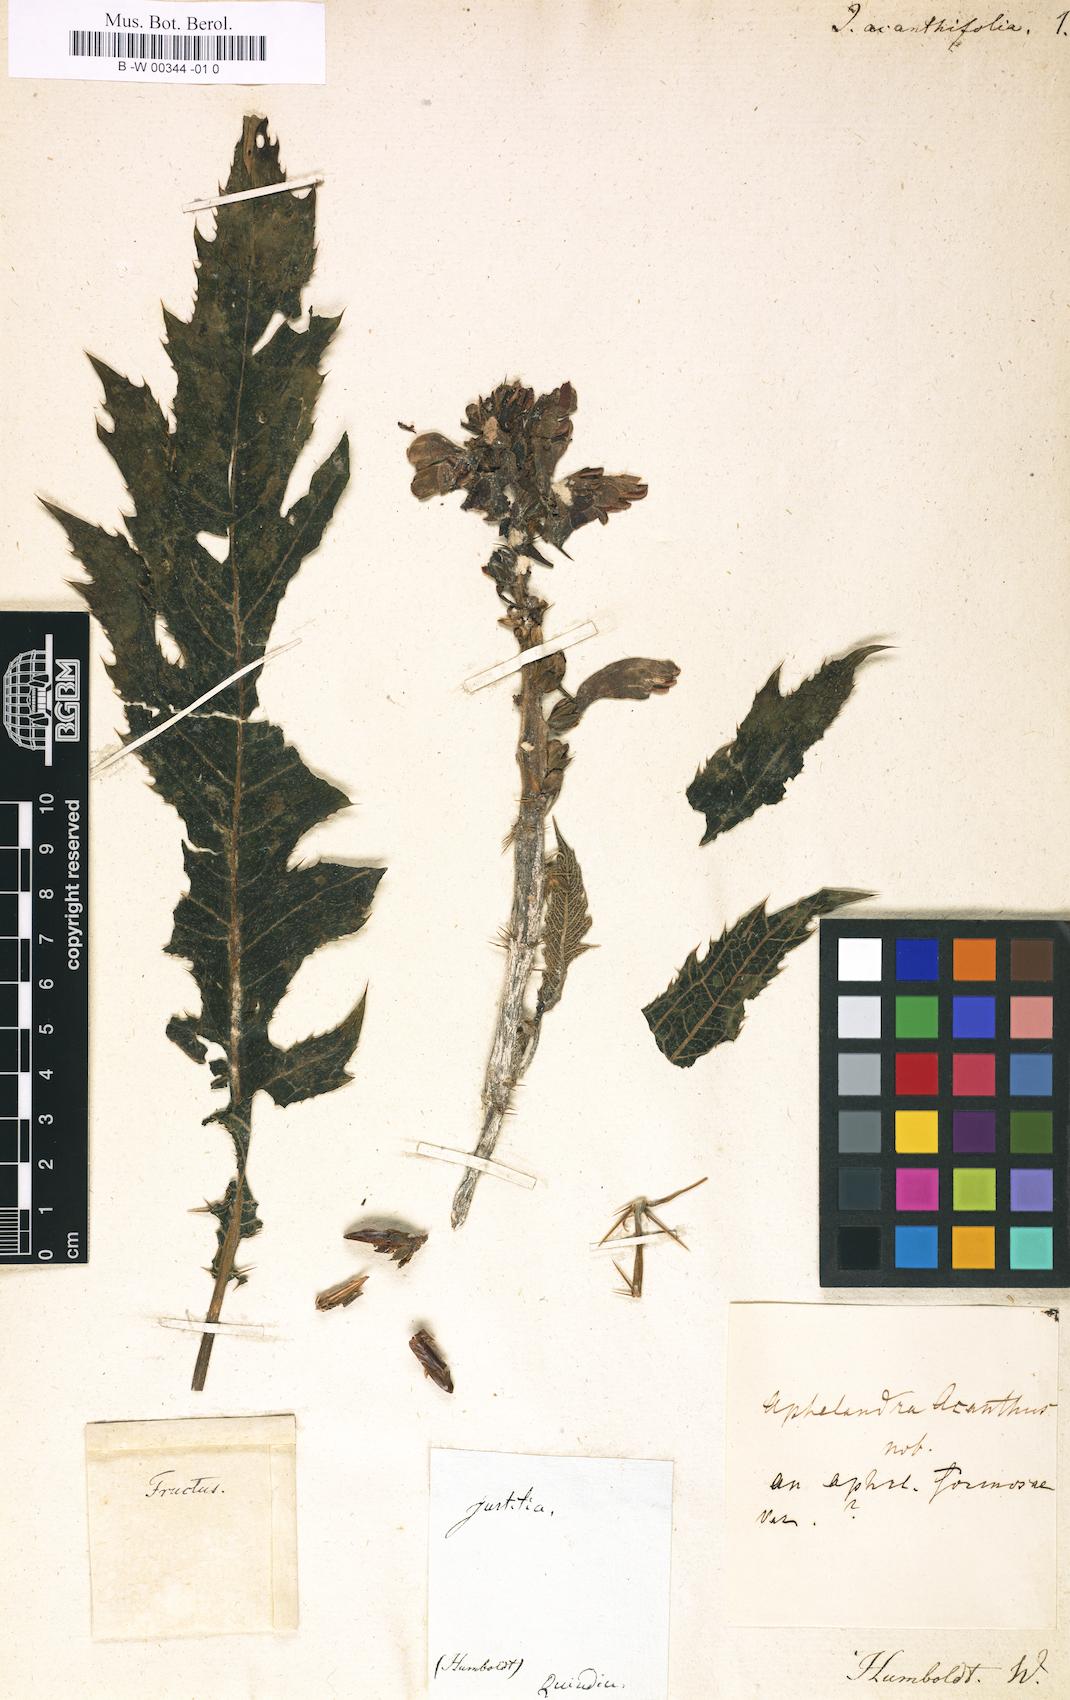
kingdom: Plantae
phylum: Tracheophyta
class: Magnoliopsida
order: Lamiales
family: Acanthaceae
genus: Aphelandra
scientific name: Aphelandra acanthus
